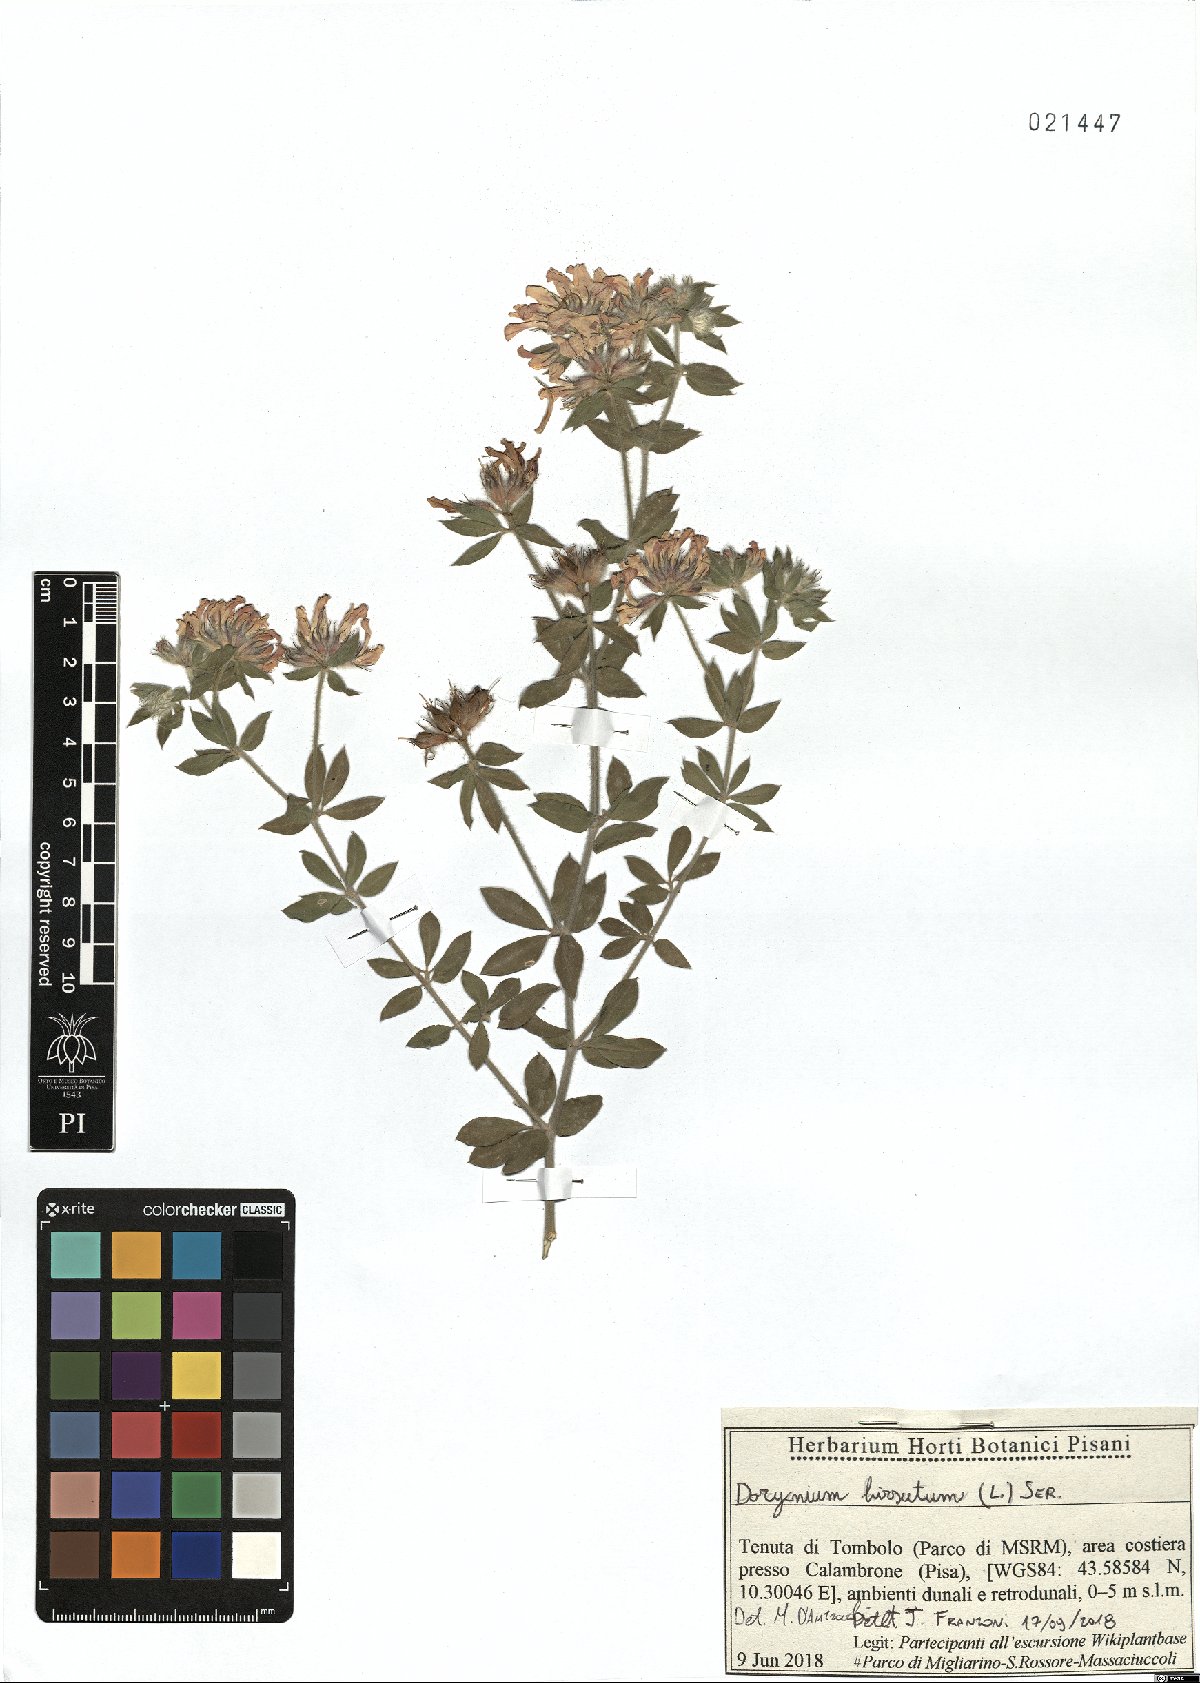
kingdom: Plantae
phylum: Tracheophyta
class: Magnoliopsida
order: Fabales
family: Fabaceae
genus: Lotus
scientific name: Lotus hirsutus
